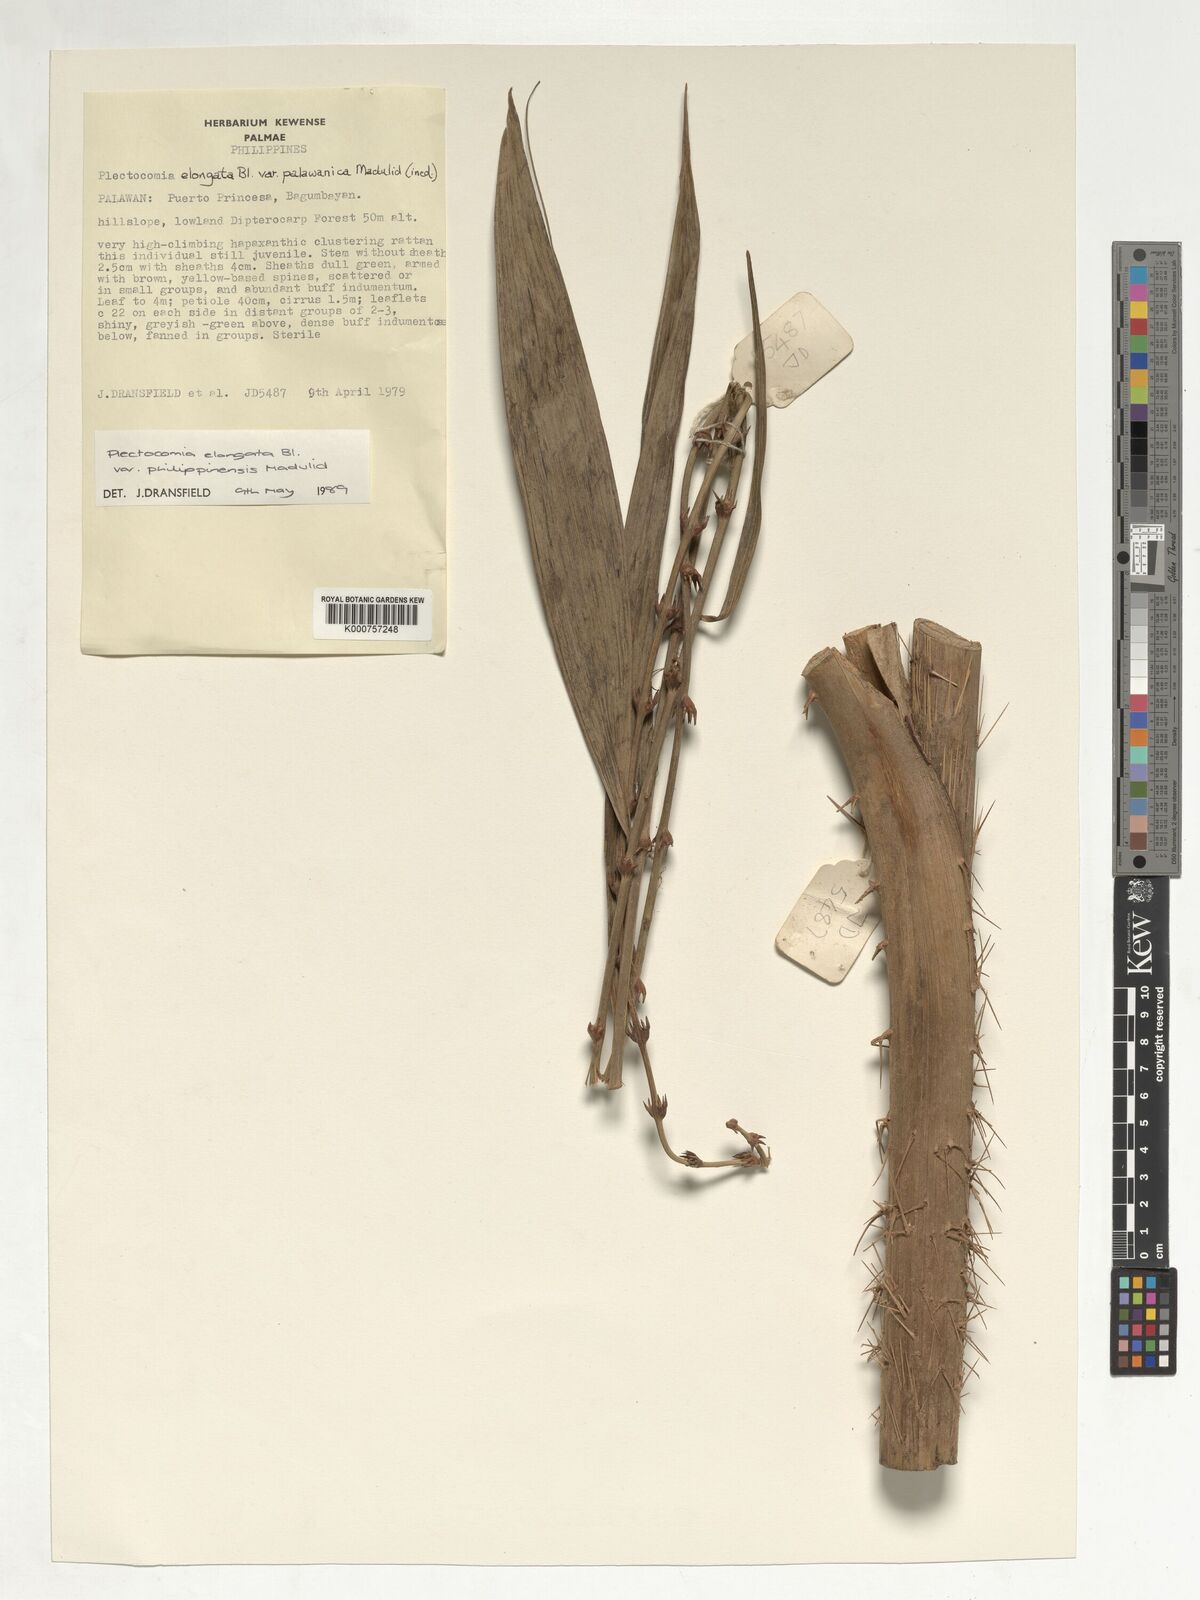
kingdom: Plantae
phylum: Tracheophyta
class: Liliopsida
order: Arecales
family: Arecaceae
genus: Plectocomia
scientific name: Plectocomia elongata
